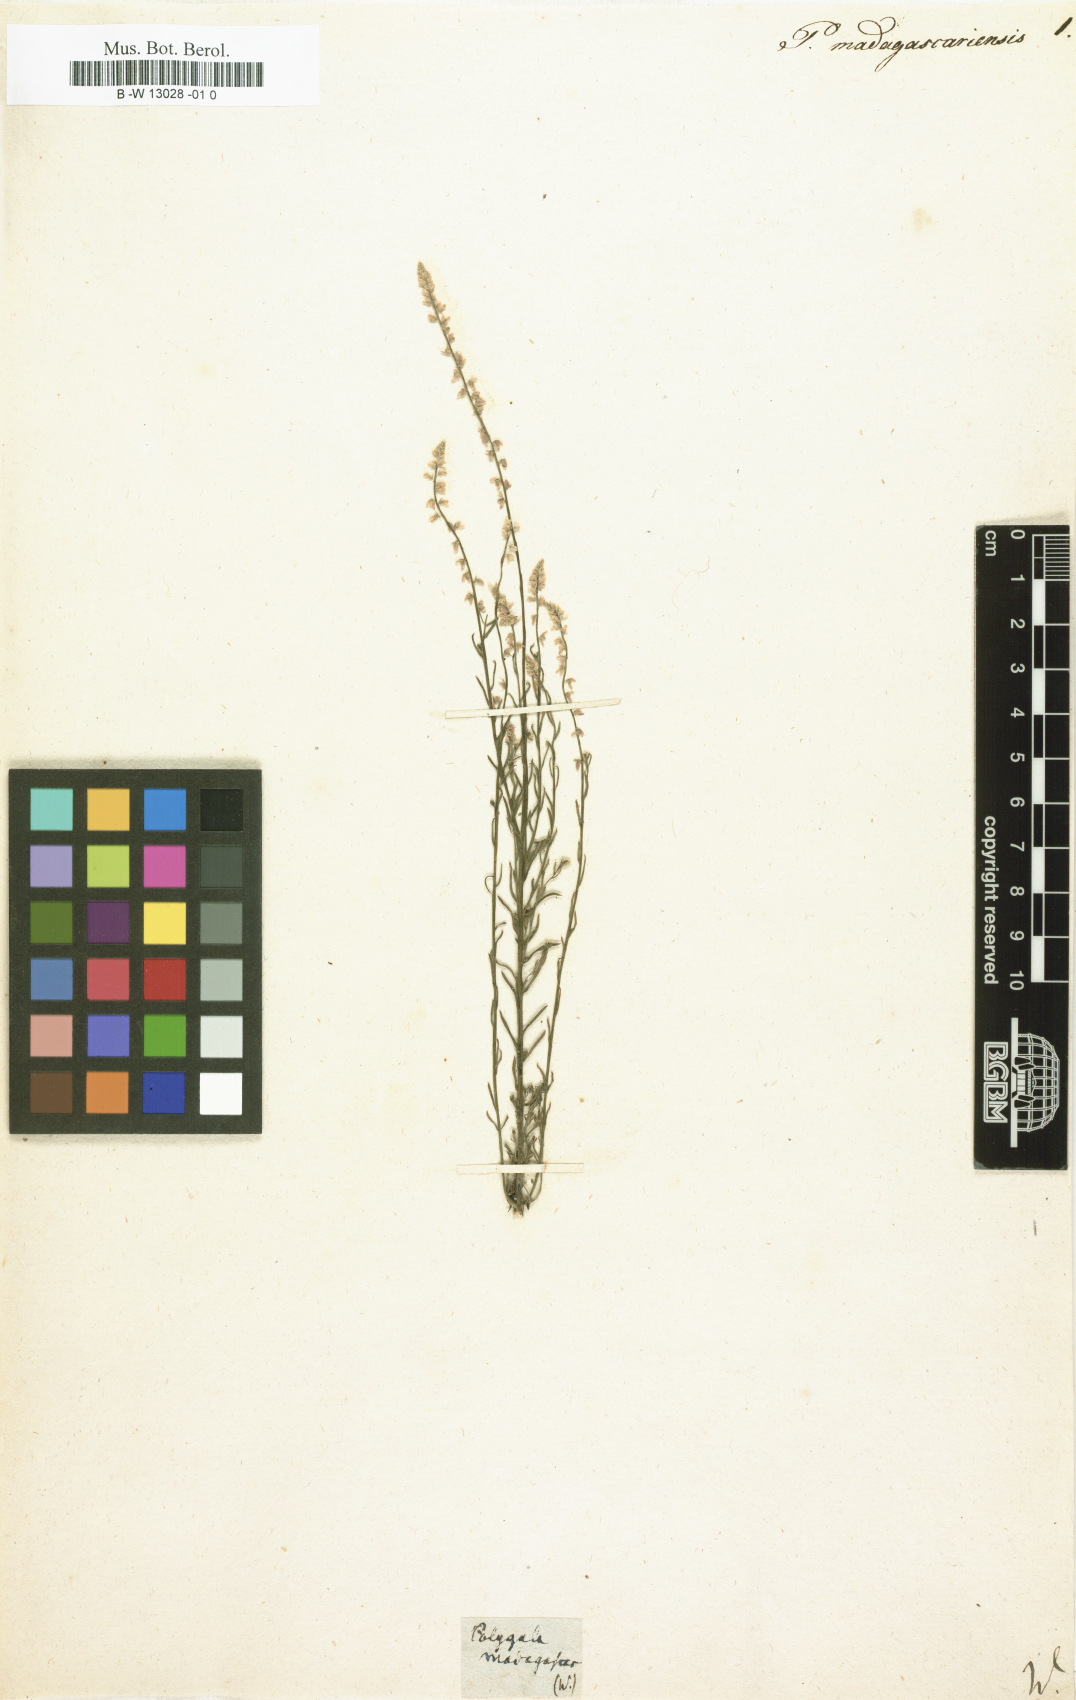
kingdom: Plantae
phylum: Tracheophyta
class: Magnoliopsida
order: Fabales
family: Polygalaceae
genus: Polygala
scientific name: Polygala schoenlankii
